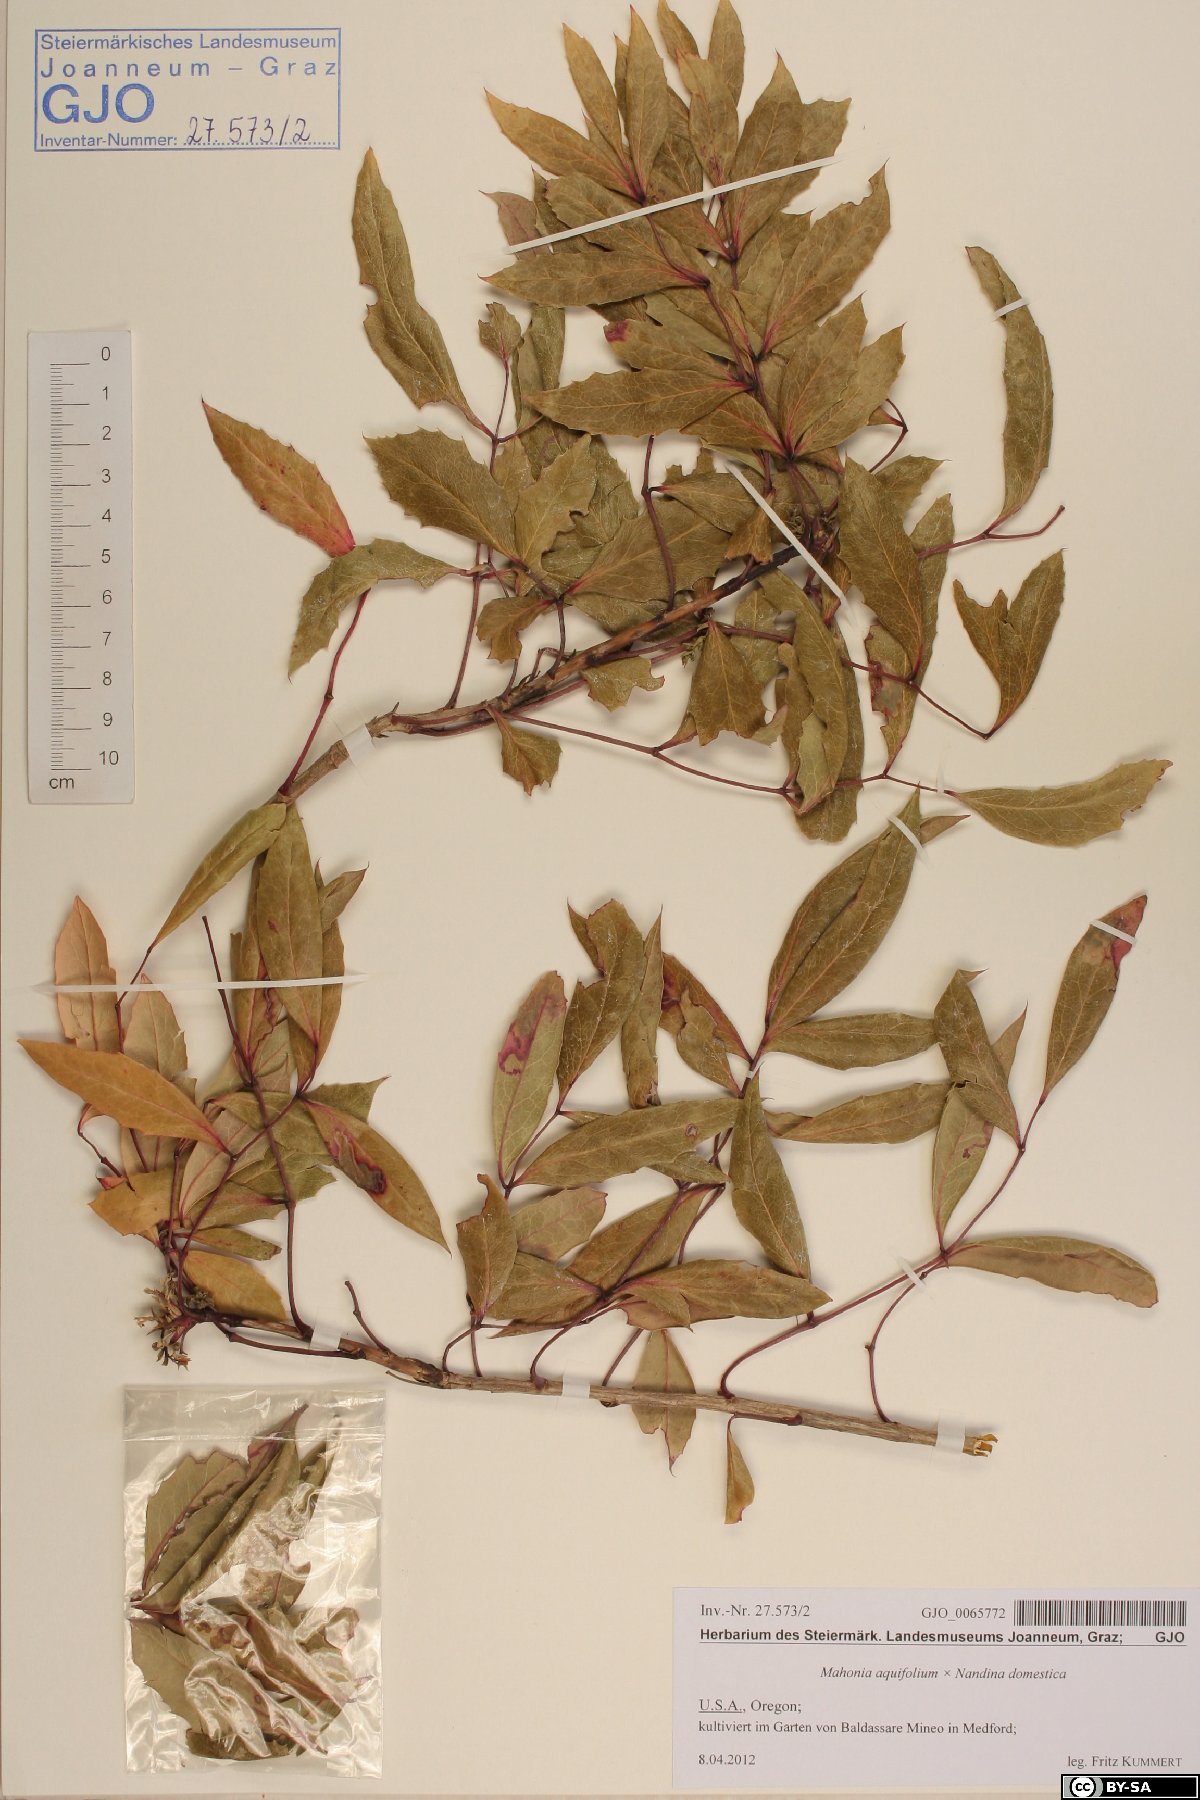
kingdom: Plantae
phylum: Tracheophyta
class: Magnoliopsida
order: Ranunculales
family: Berberidaceae
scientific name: Berberidaceae
